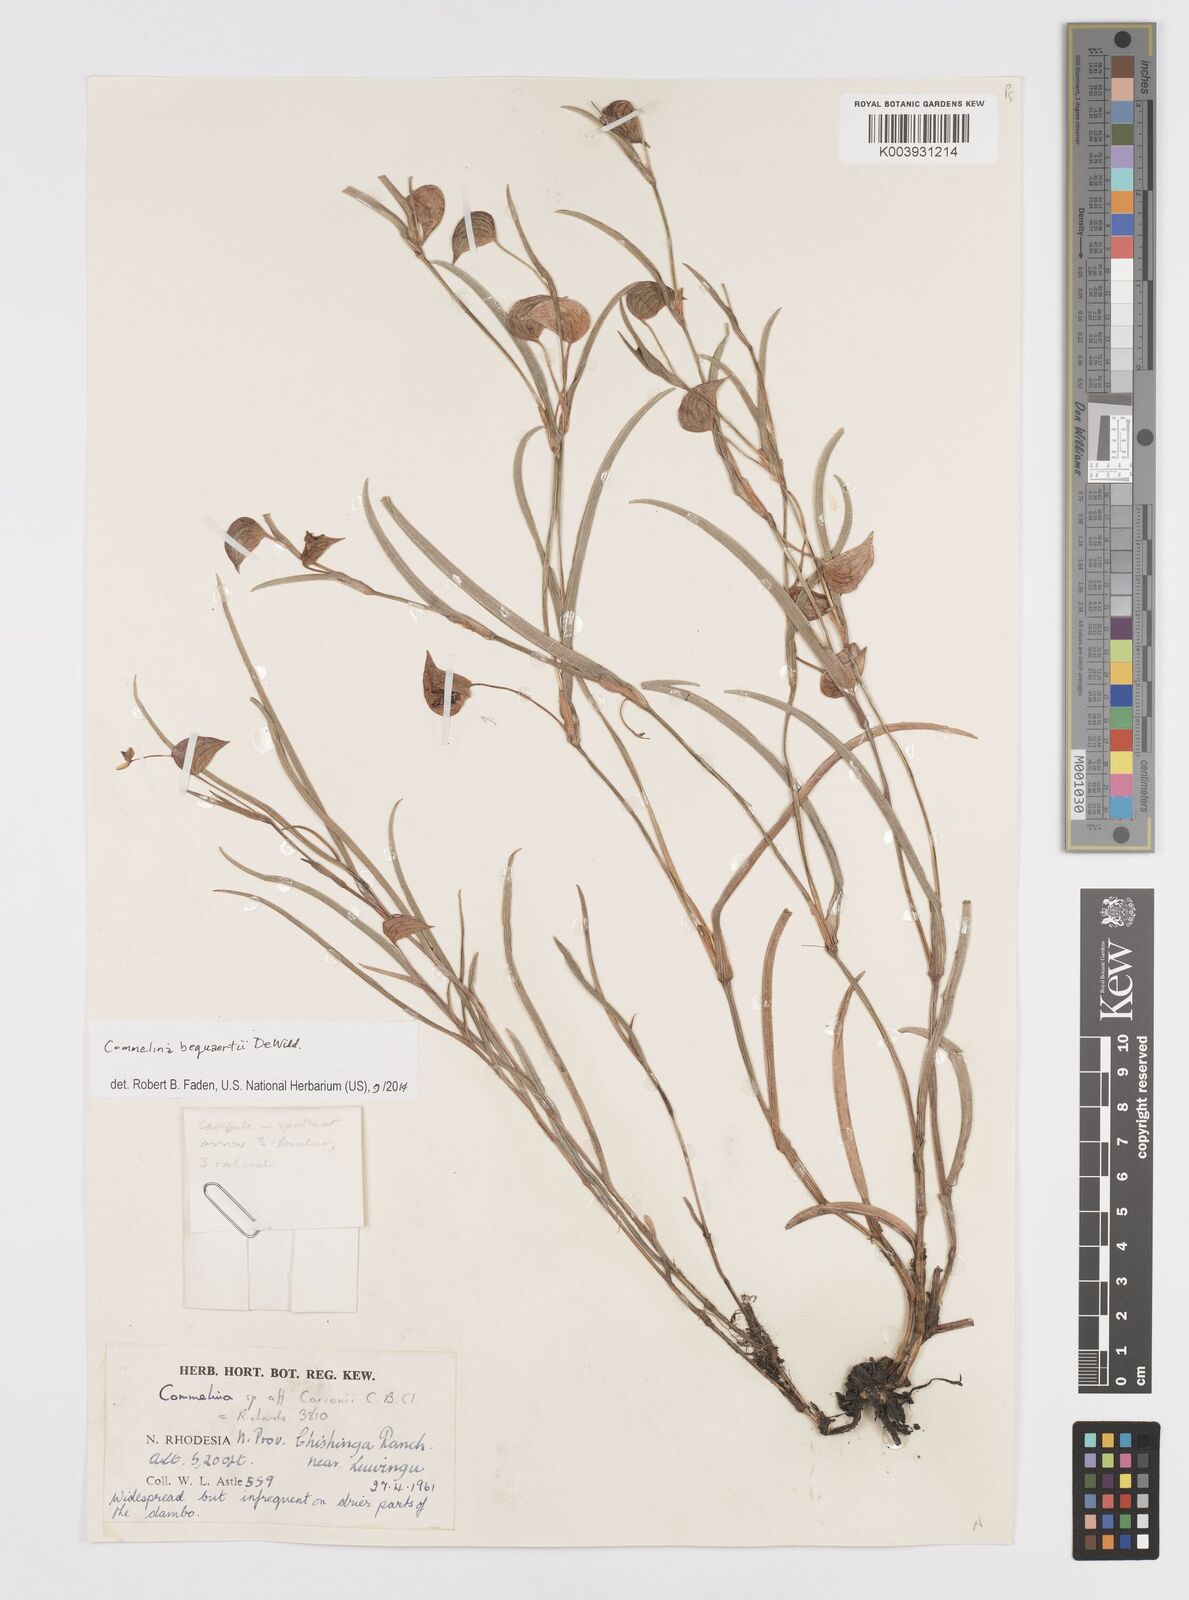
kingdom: Plantae
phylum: Tracheophyta
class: Liliopsida
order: Commelinales
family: Commelinaceae
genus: Commelina
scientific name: Commelina bequaertii
